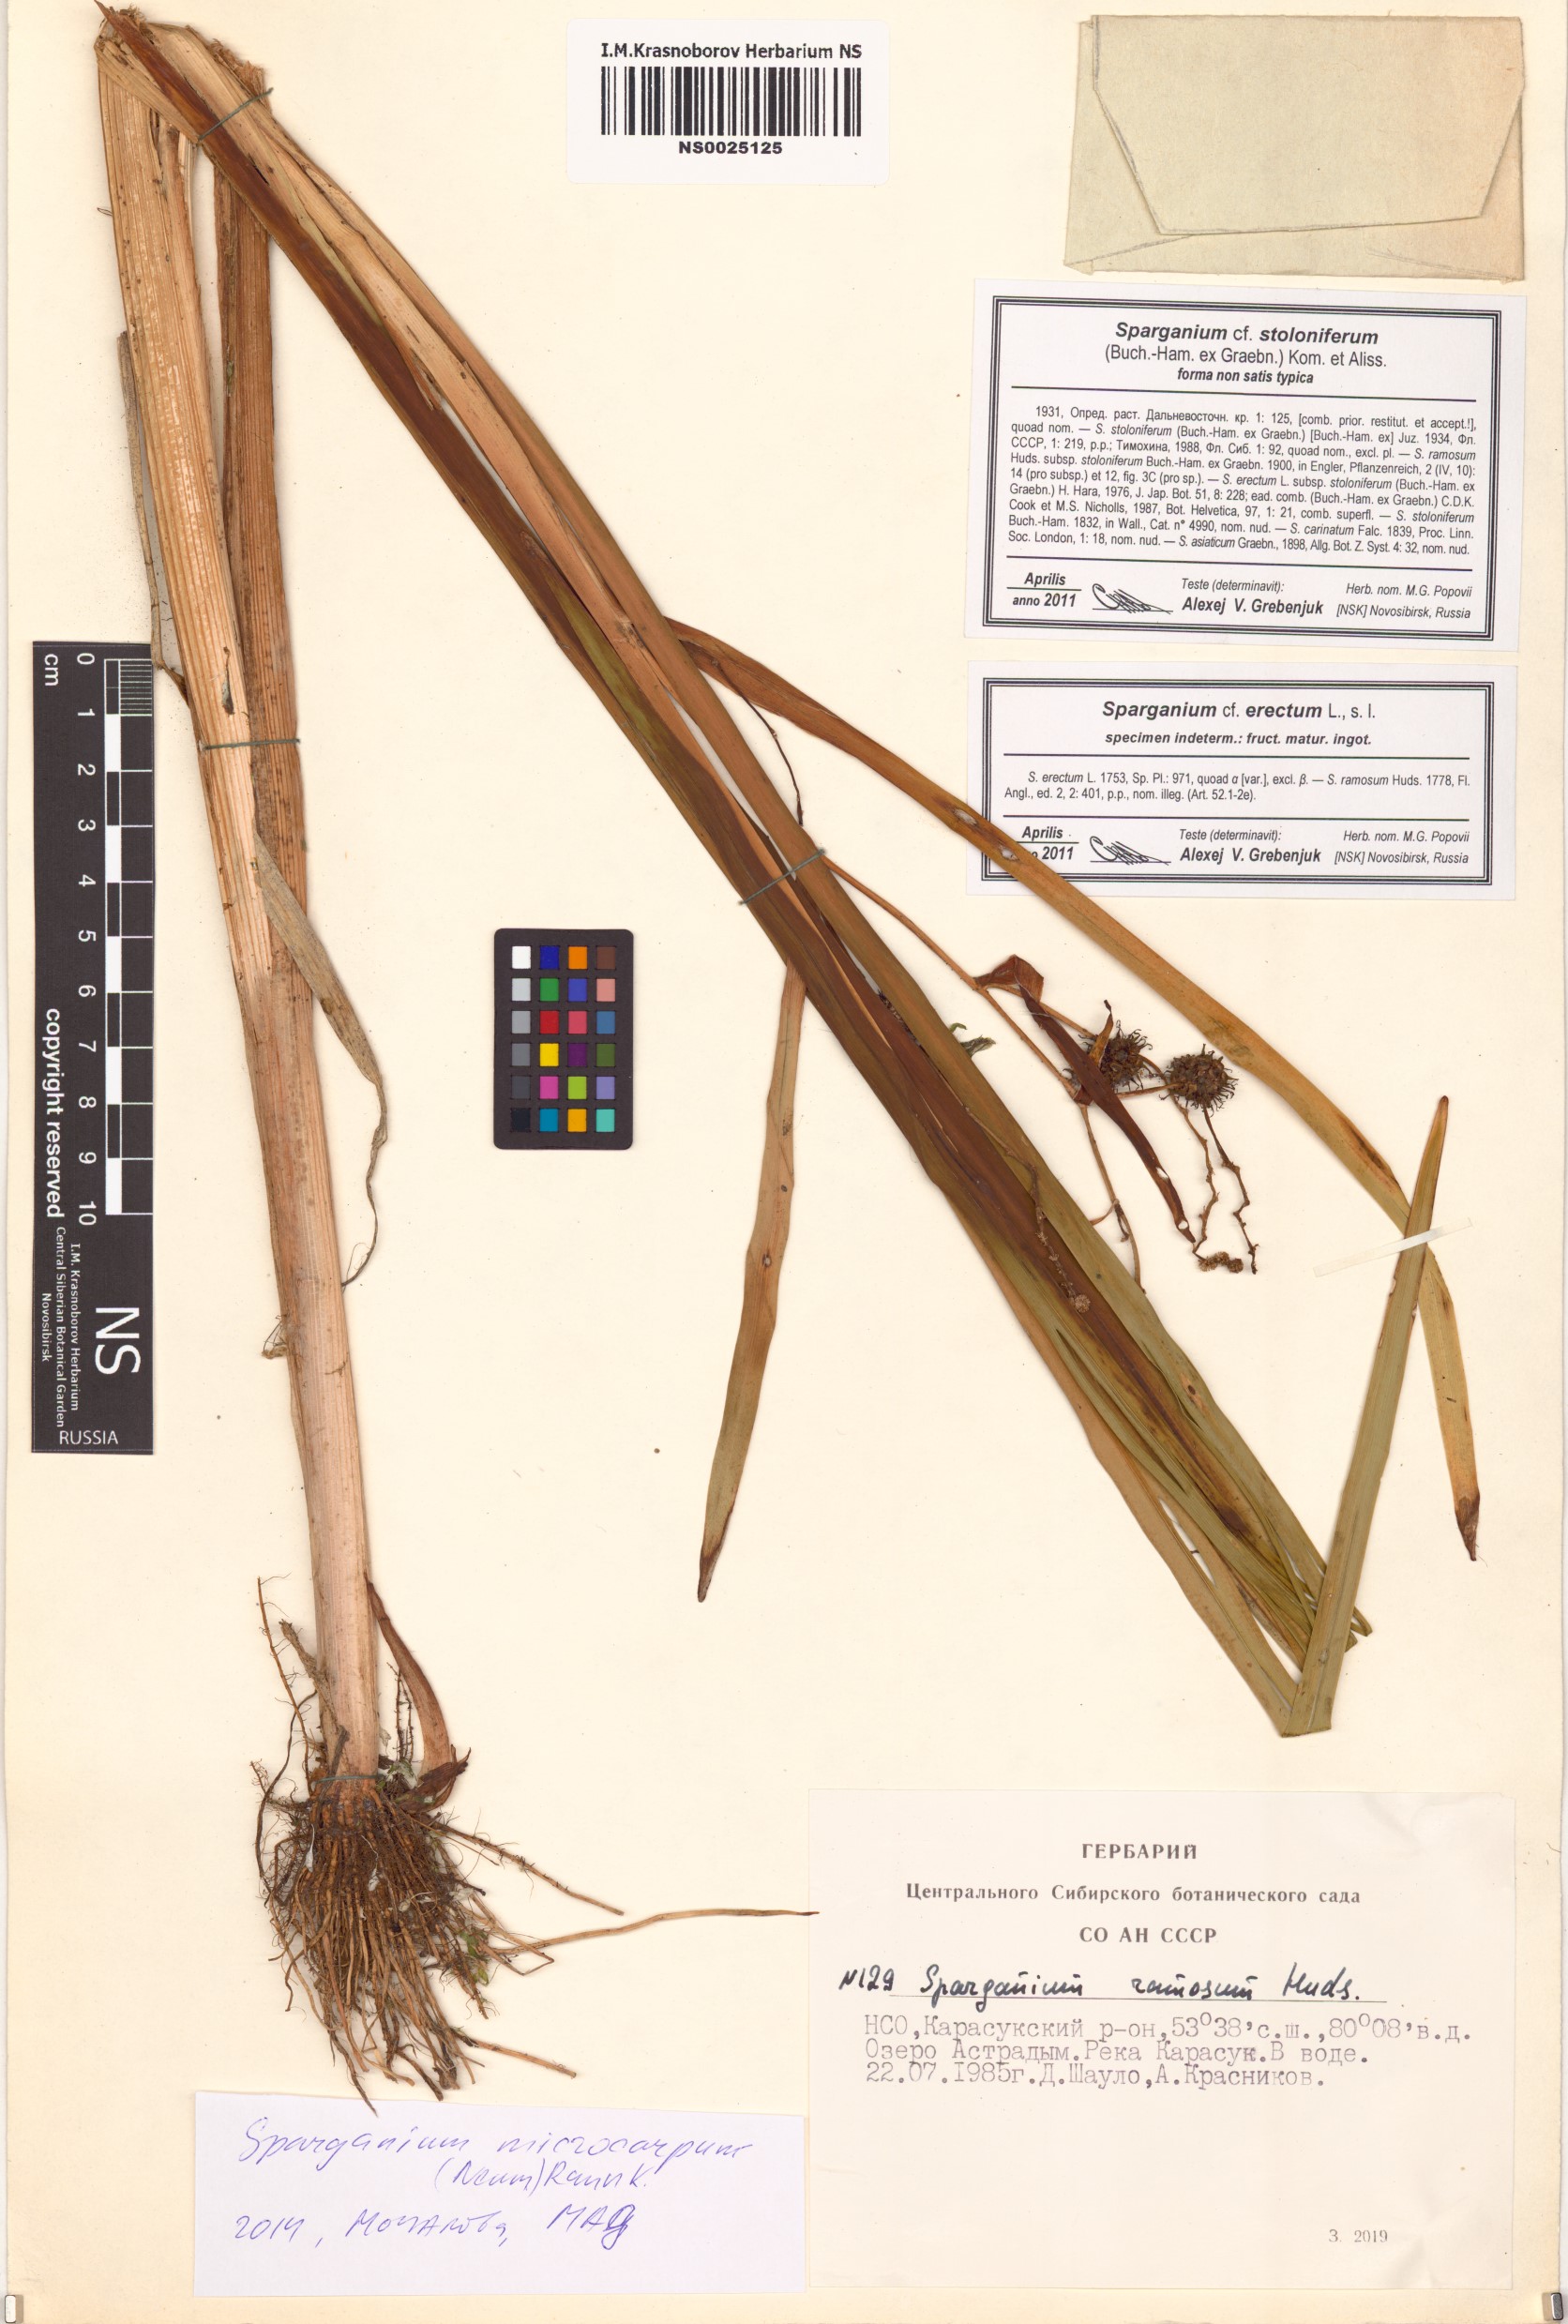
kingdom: Plantae
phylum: Tracheophyta
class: Liliopsida
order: Poales
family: Typhaceae
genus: Sparganium
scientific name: Sparganium erectum
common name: Branched bur-reed
